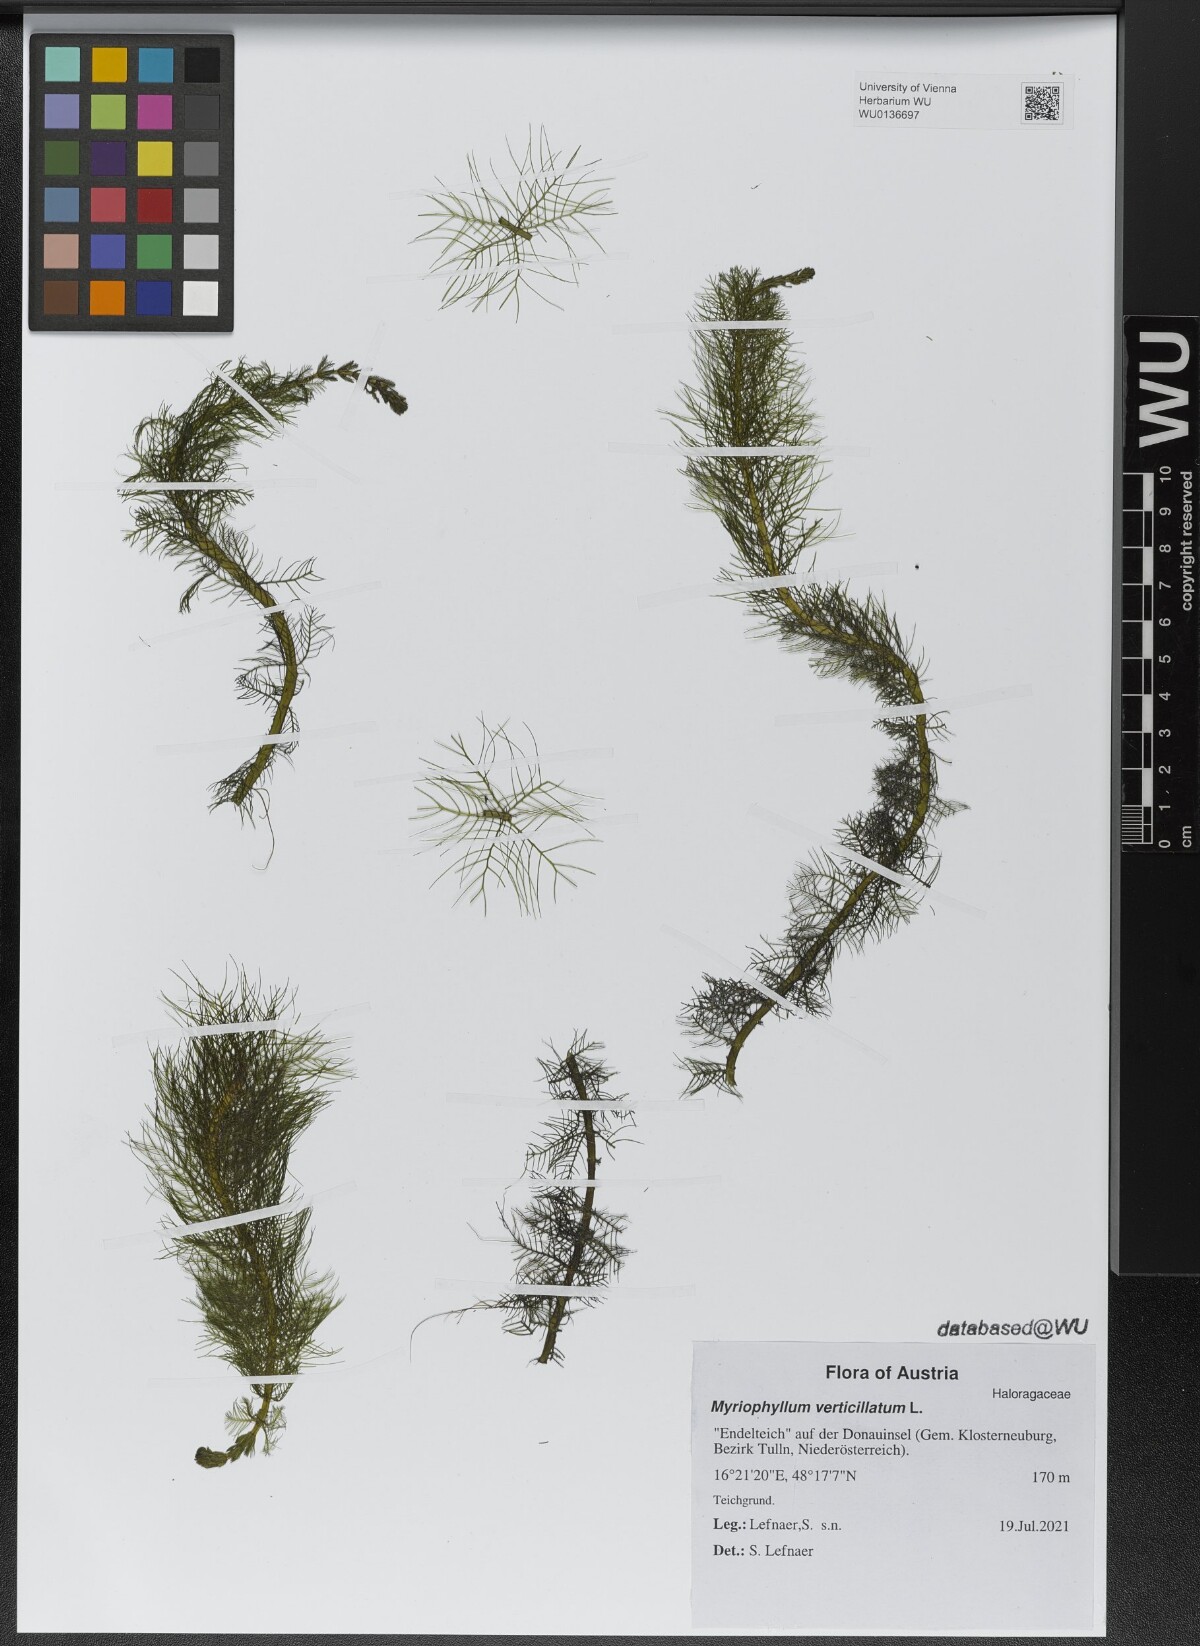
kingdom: Plantae
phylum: Tracheophyta
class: Magnoliopsida
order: Saxifragales
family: Haloragaceae
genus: Myriophyllum
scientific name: Myriophyllum verticillatum
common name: Whorled water-milfoil
